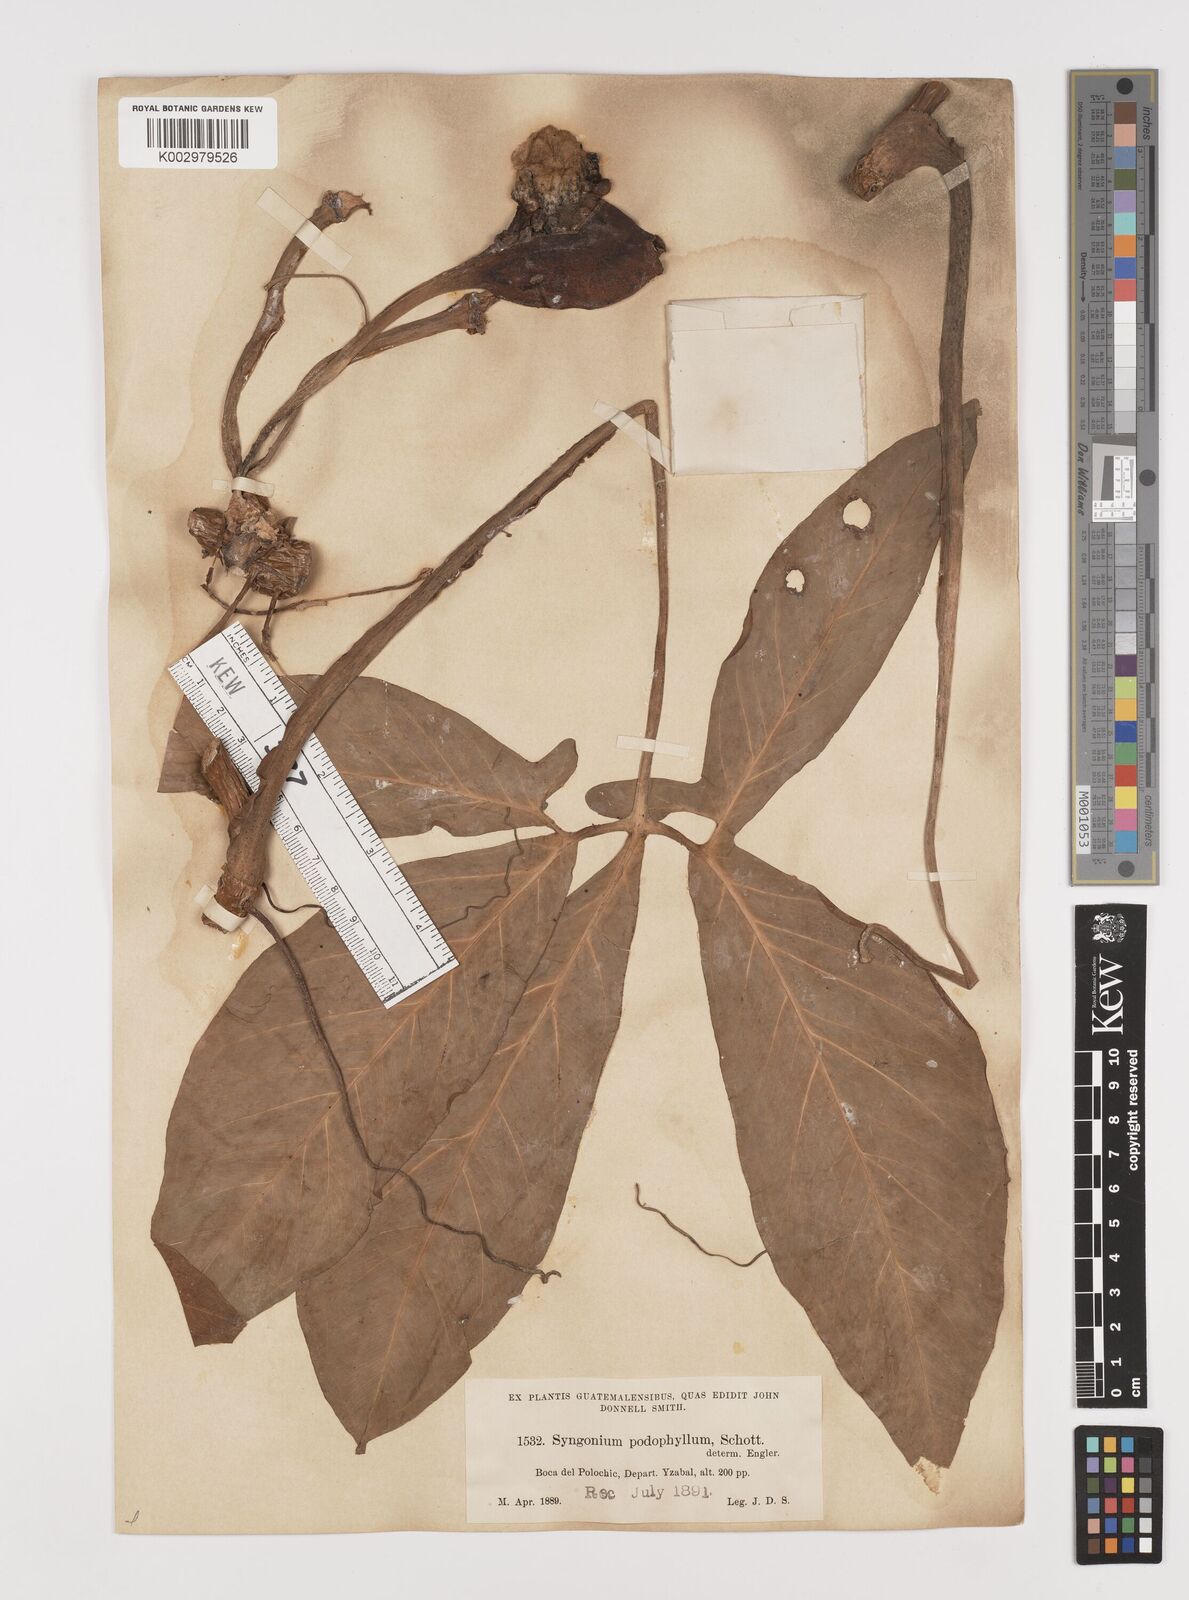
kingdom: Plantae
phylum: Tracheophyta
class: Liliopsida
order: Alismatales
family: Araceae
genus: Syngonium
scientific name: Syngonium podophyllum
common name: American evergreen
